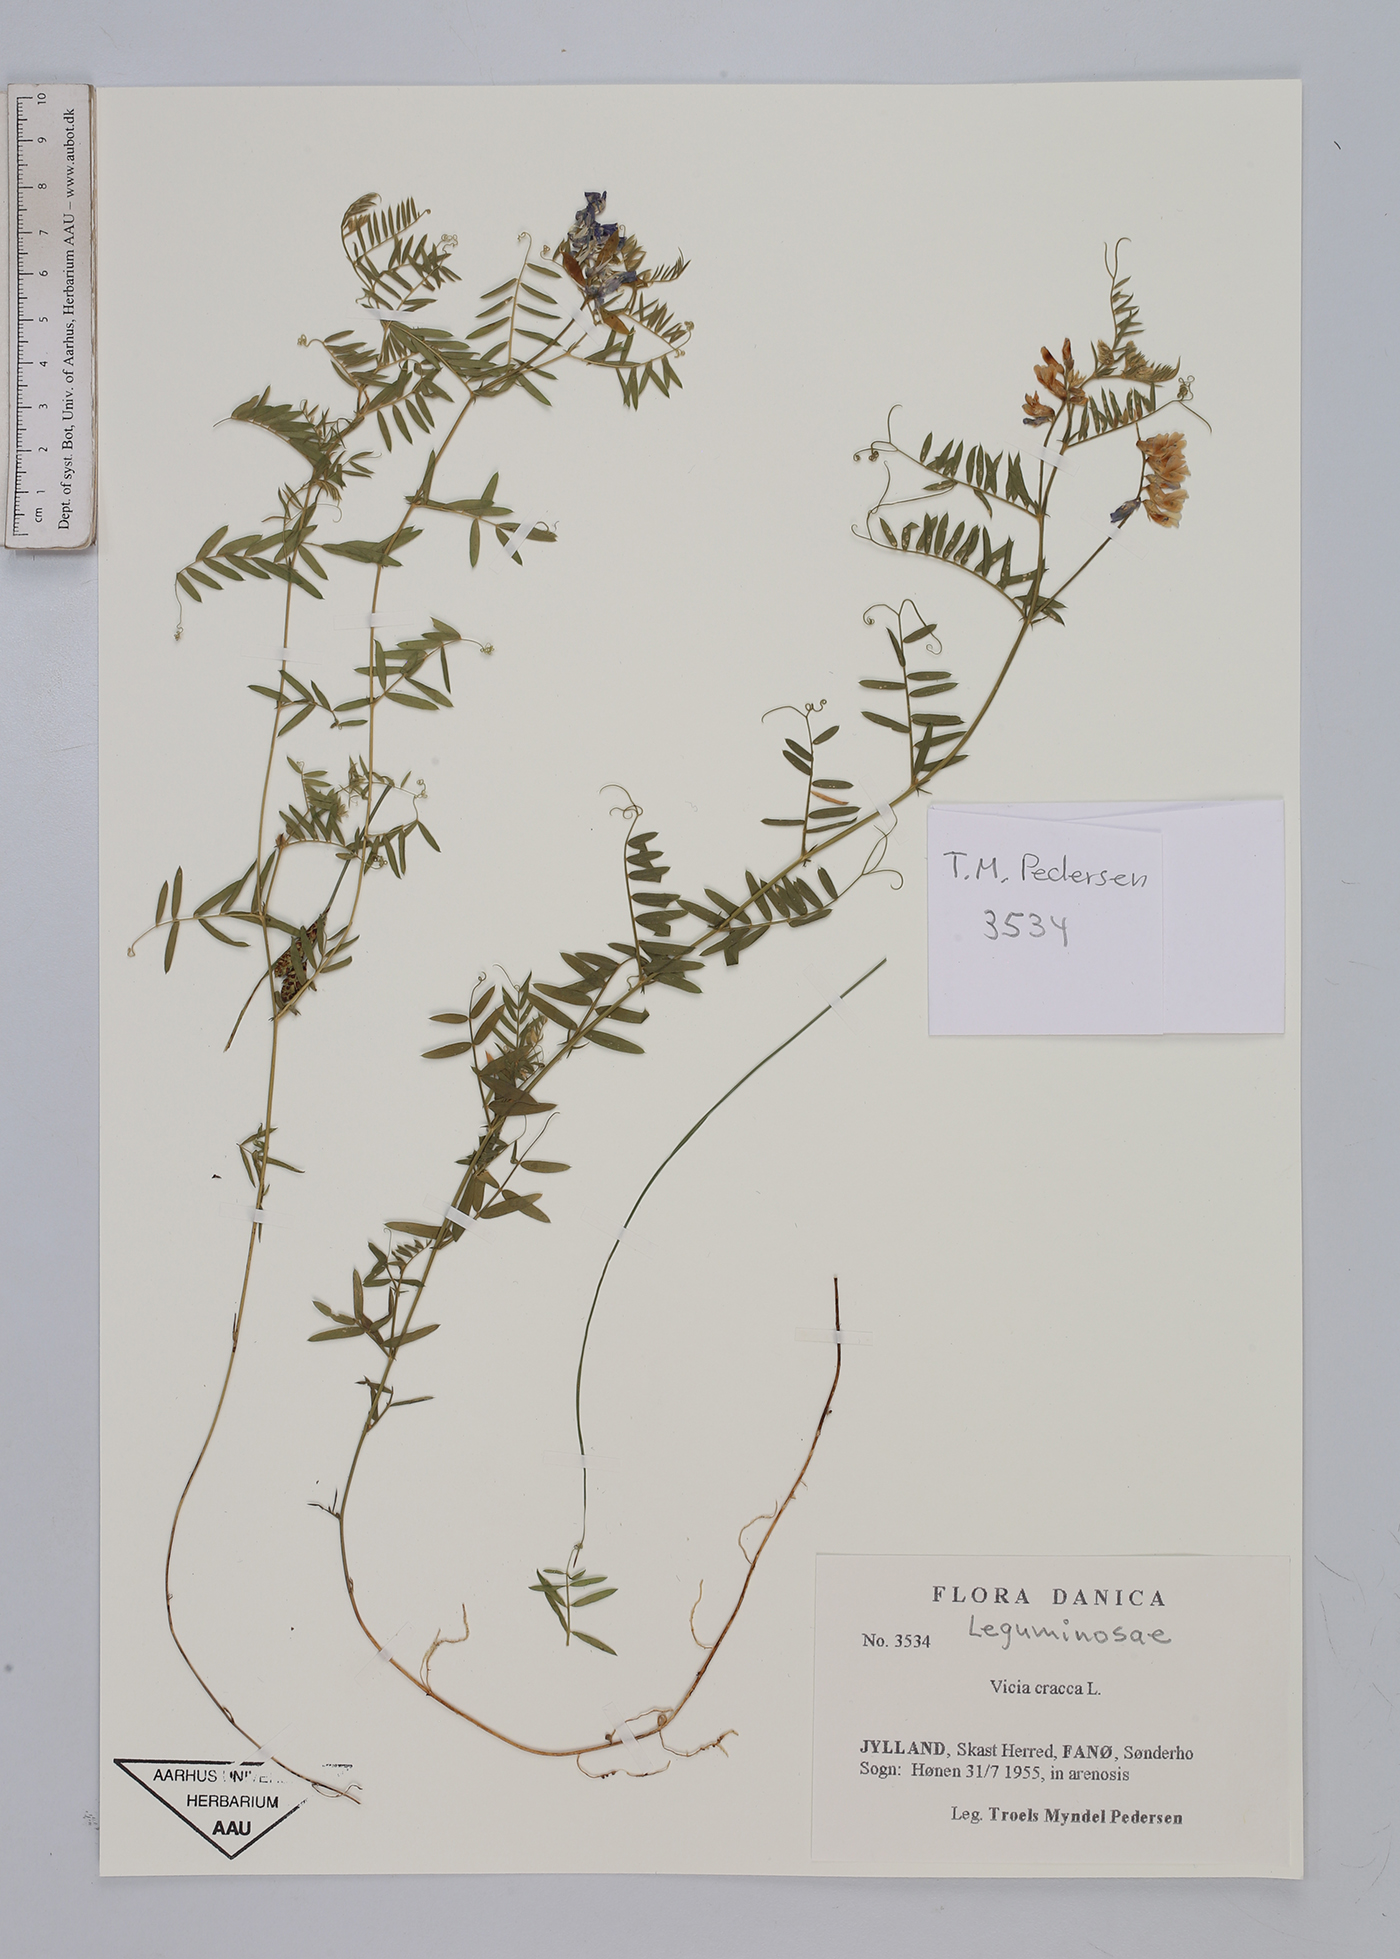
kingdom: Plantae
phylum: Tracheophyta
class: Magnoliopsida
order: Fabales
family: Fabaceae
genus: Vicia
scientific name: Vicia cracca
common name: Bird vetch
